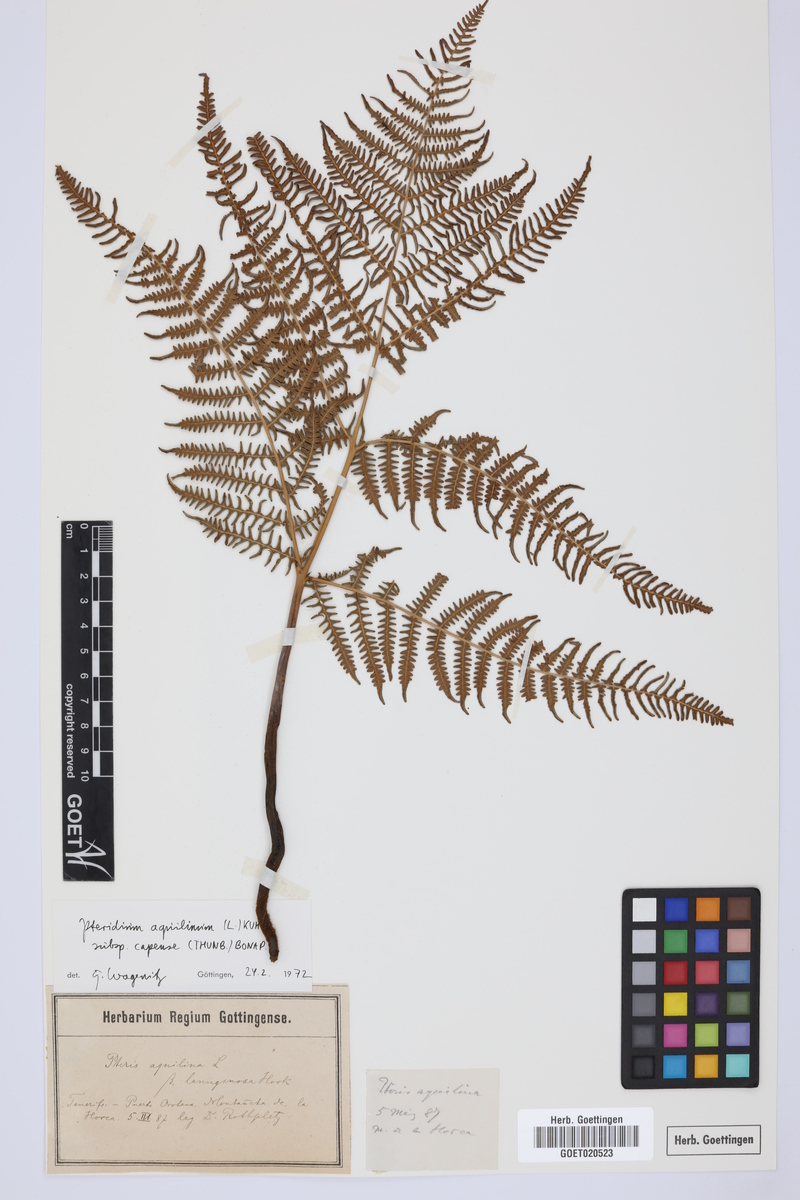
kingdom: Plantae
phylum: Tracheophyta
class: Polypodiopsida
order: Polypodiales
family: Dennstaedtiaceae
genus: Pteridium
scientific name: Pteridium aquilinum
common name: Bracken
